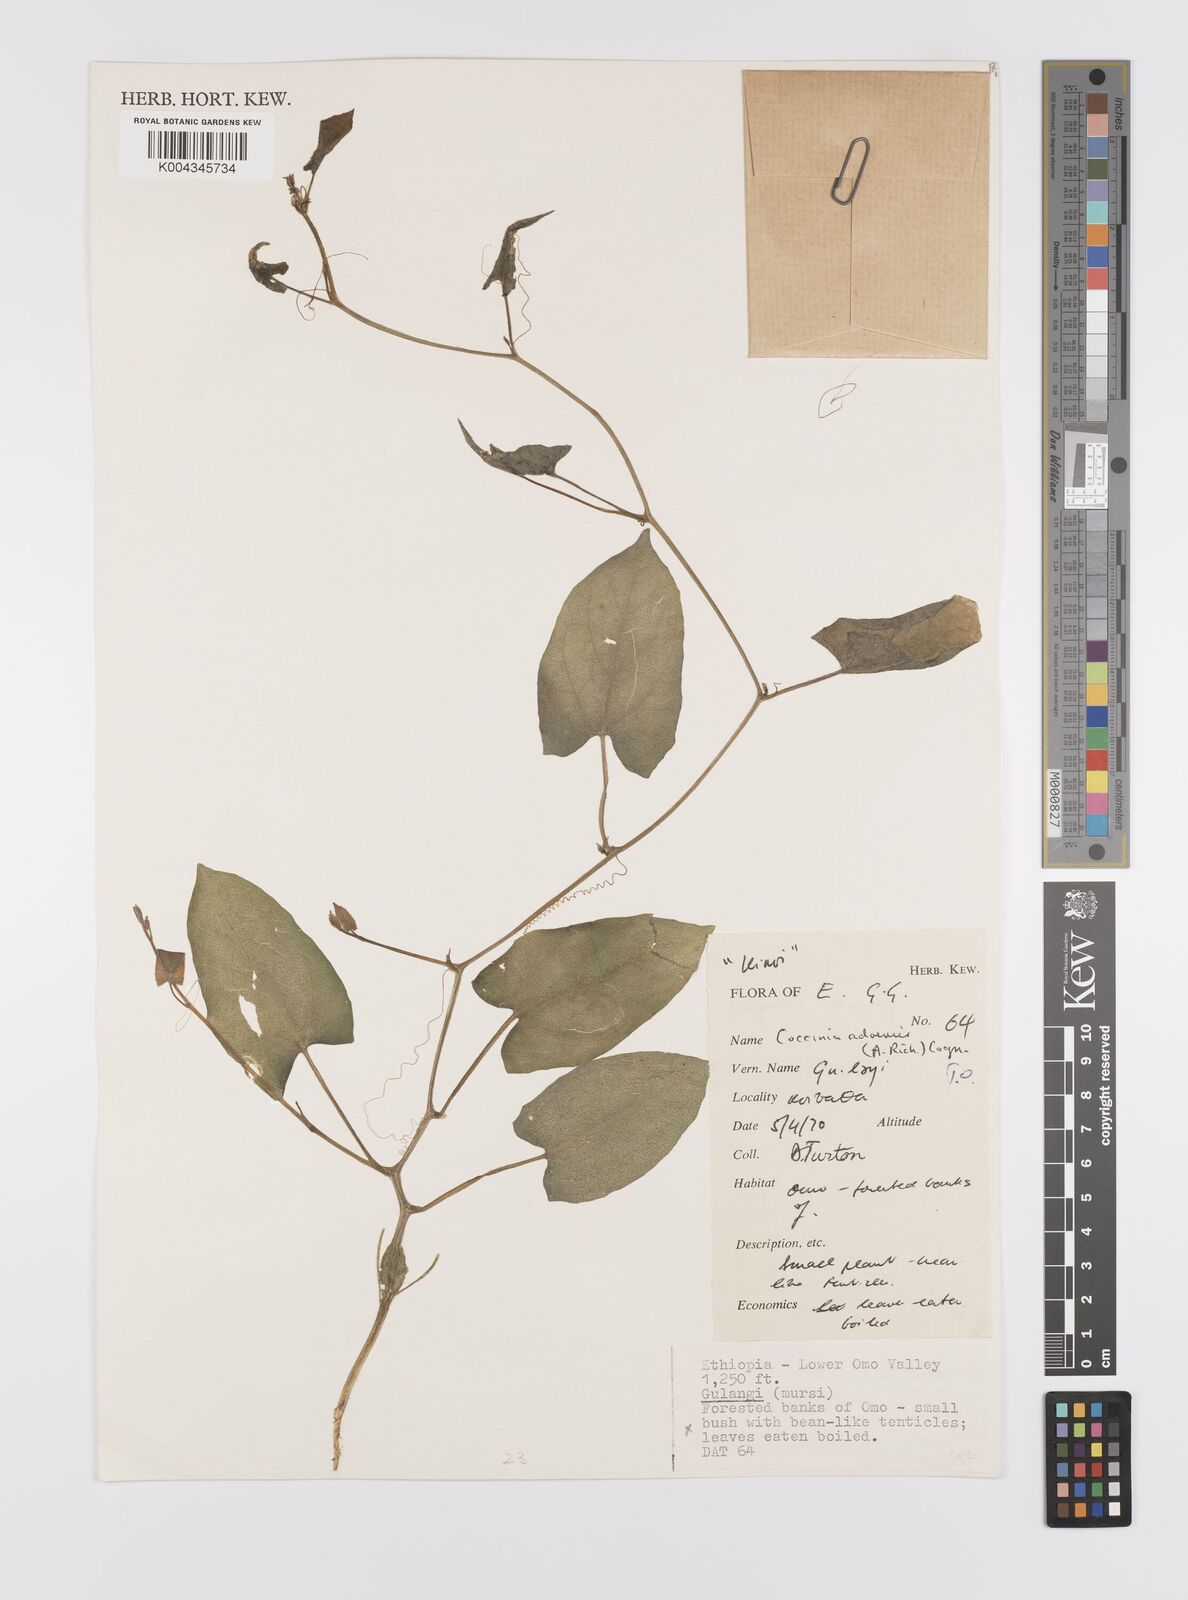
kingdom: Plantae
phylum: Tracheophyta
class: Magnoliopsida
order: Cucurbitales
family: Cucurbitaceae
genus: Coccinia
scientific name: Coccinia adoensis
